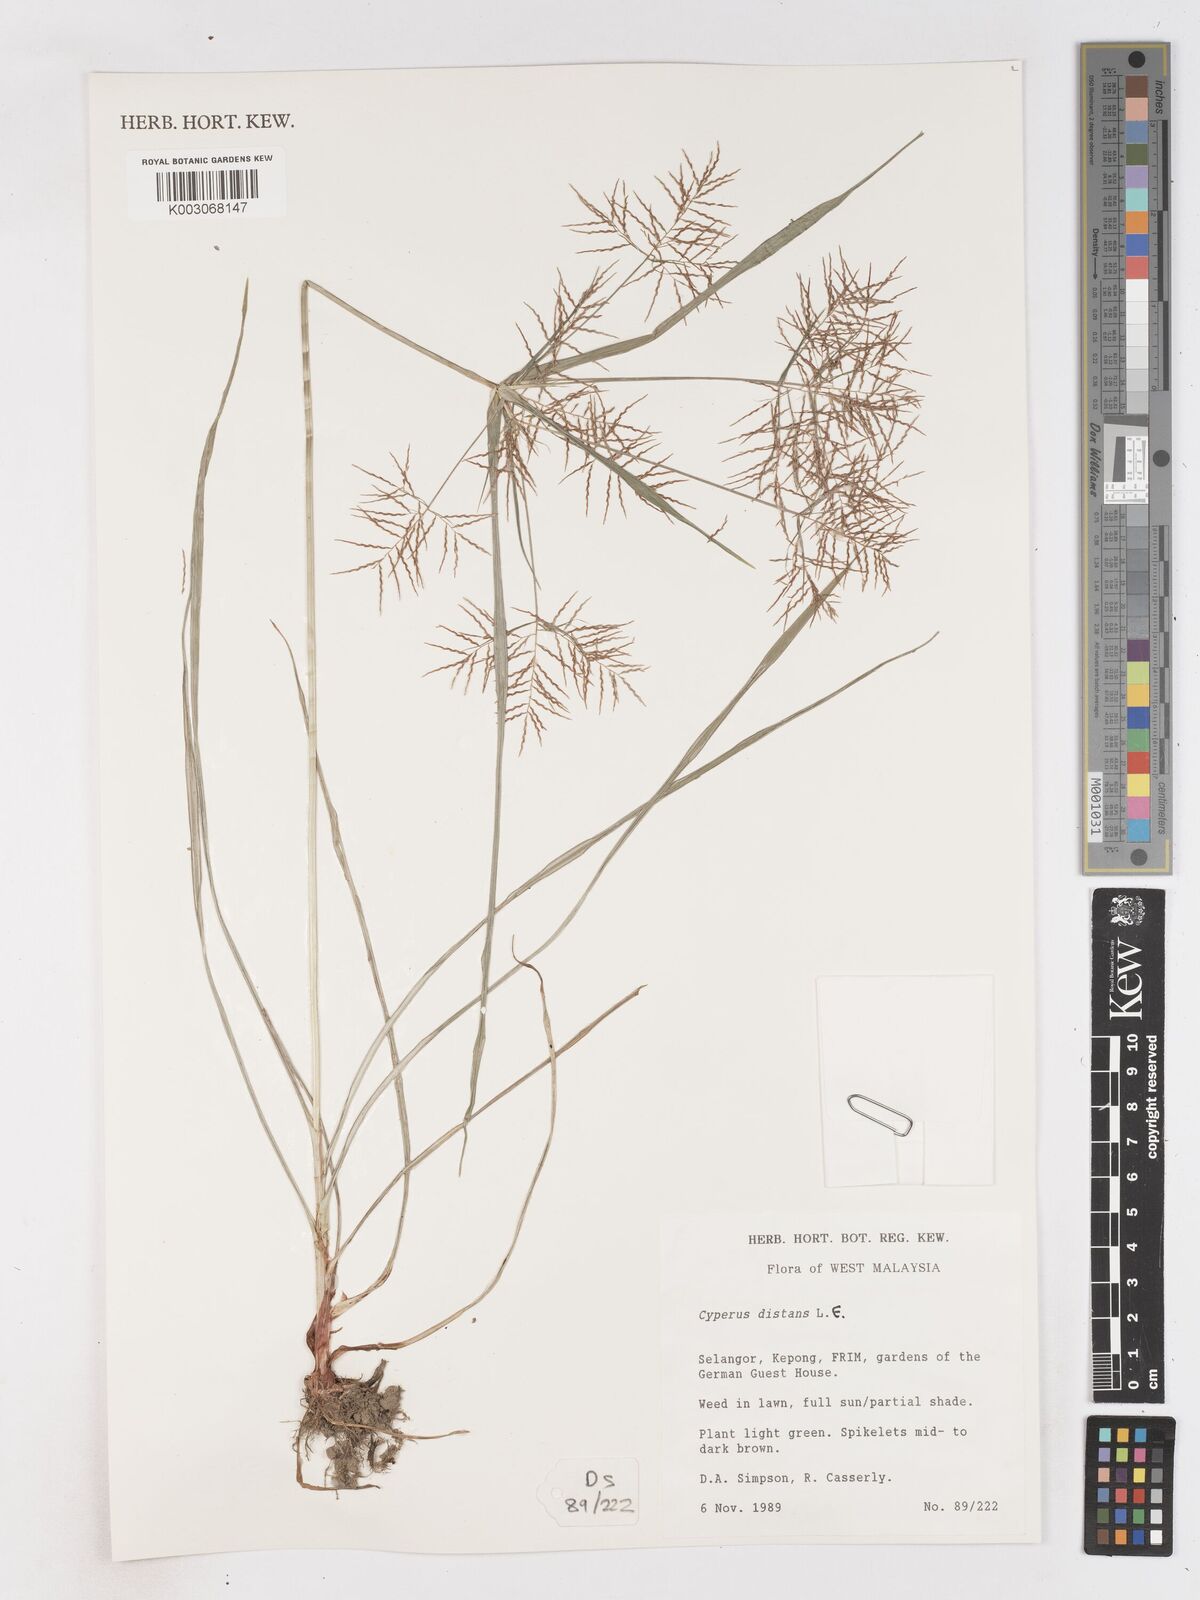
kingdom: Plantae
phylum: Tracheophyta
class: Liliopsida
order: Poales
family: Cyperaceae
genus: Cyperus
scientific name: Cyperus distans
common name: Slender cyperus
